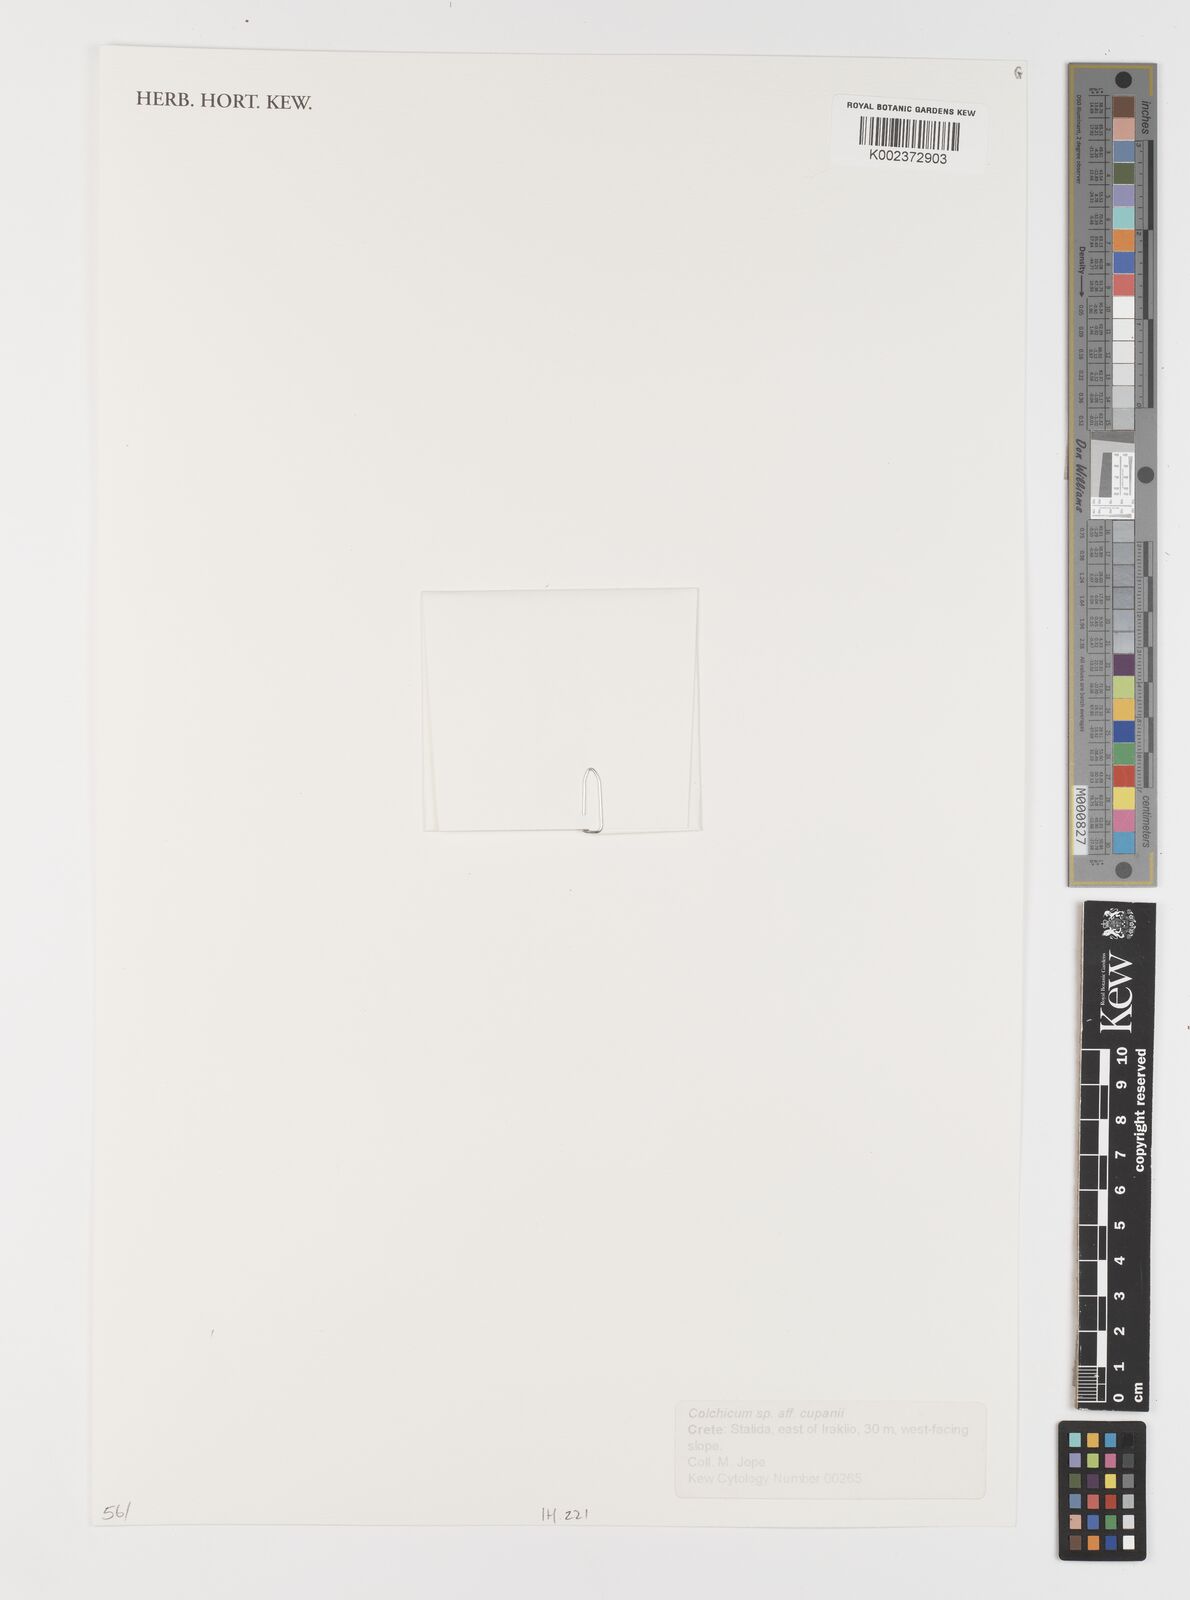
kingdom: Plantae
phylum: Tracheophyta
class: Liliopsida
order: Liliales
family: Colchicaceae
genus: Colchicum
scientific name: Colchicum cupanii
